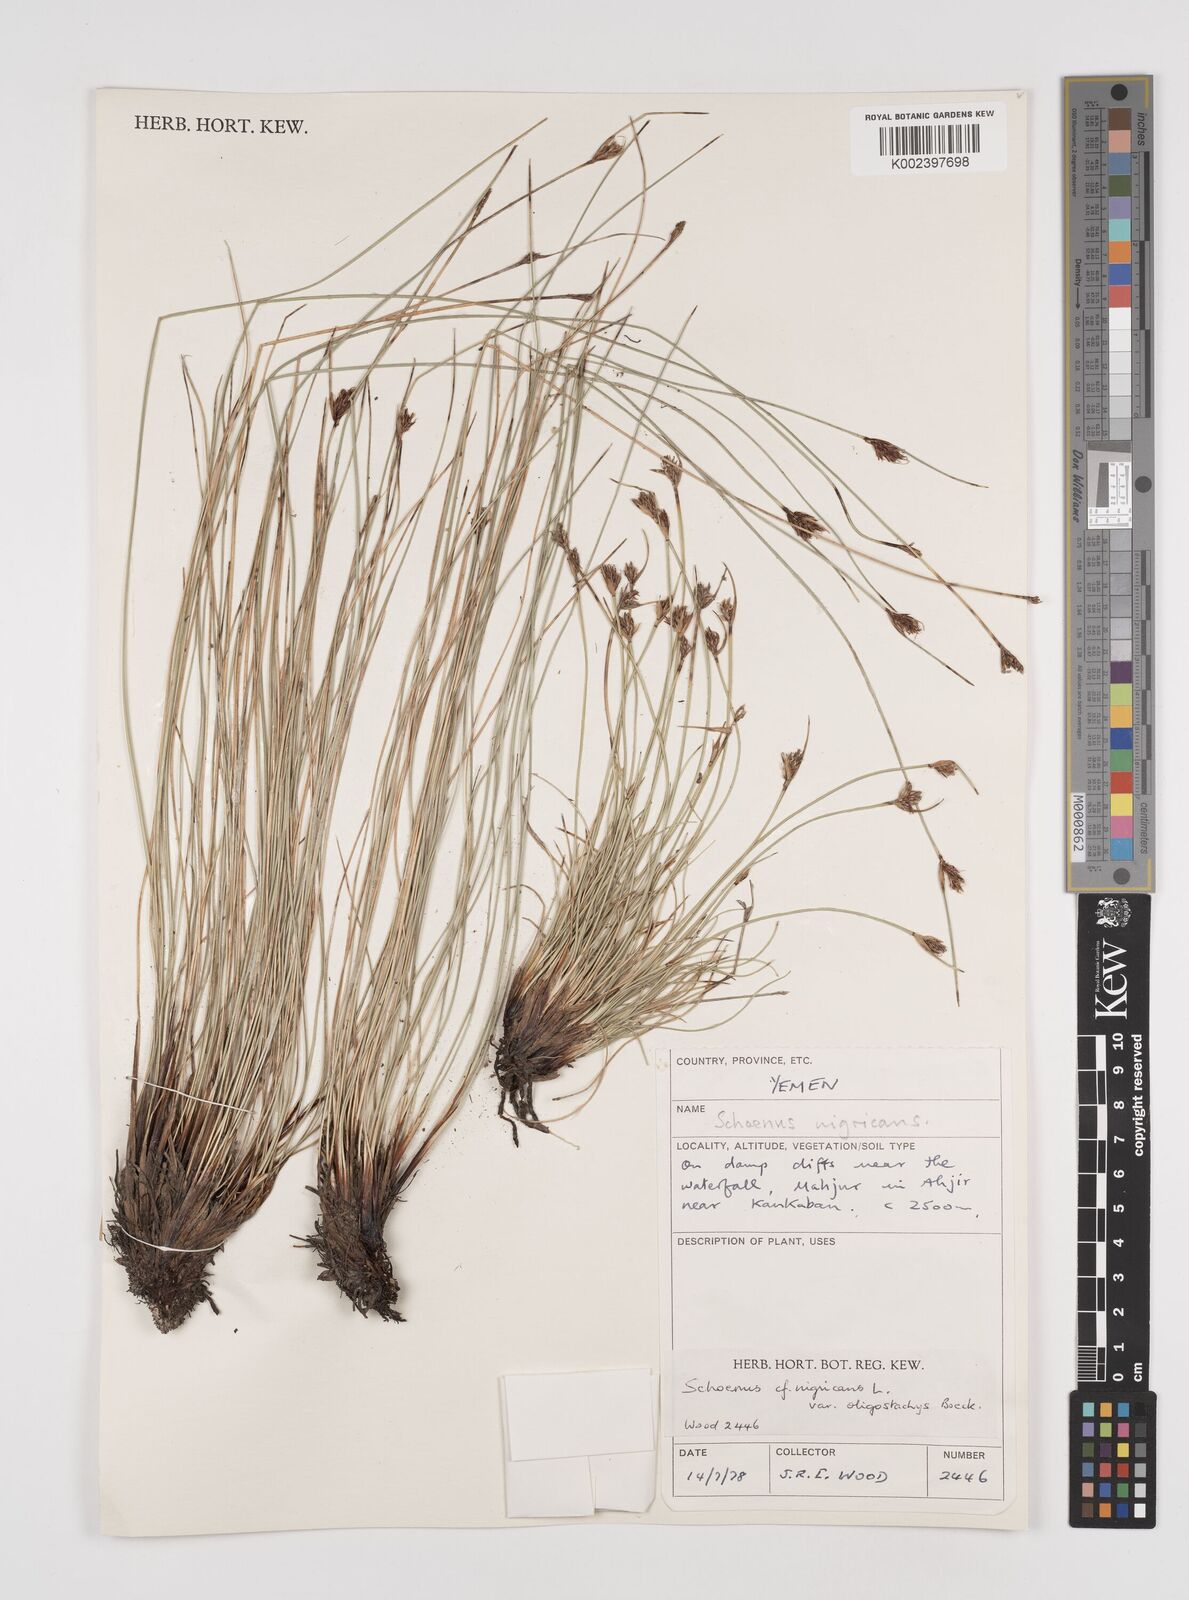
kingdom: Plantae
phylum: Tracheophyta
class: Liliopsida
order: Poales
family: Cyperaceae
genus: Schoenus
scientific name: Schoenus nigricans
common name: Black bog-rush
